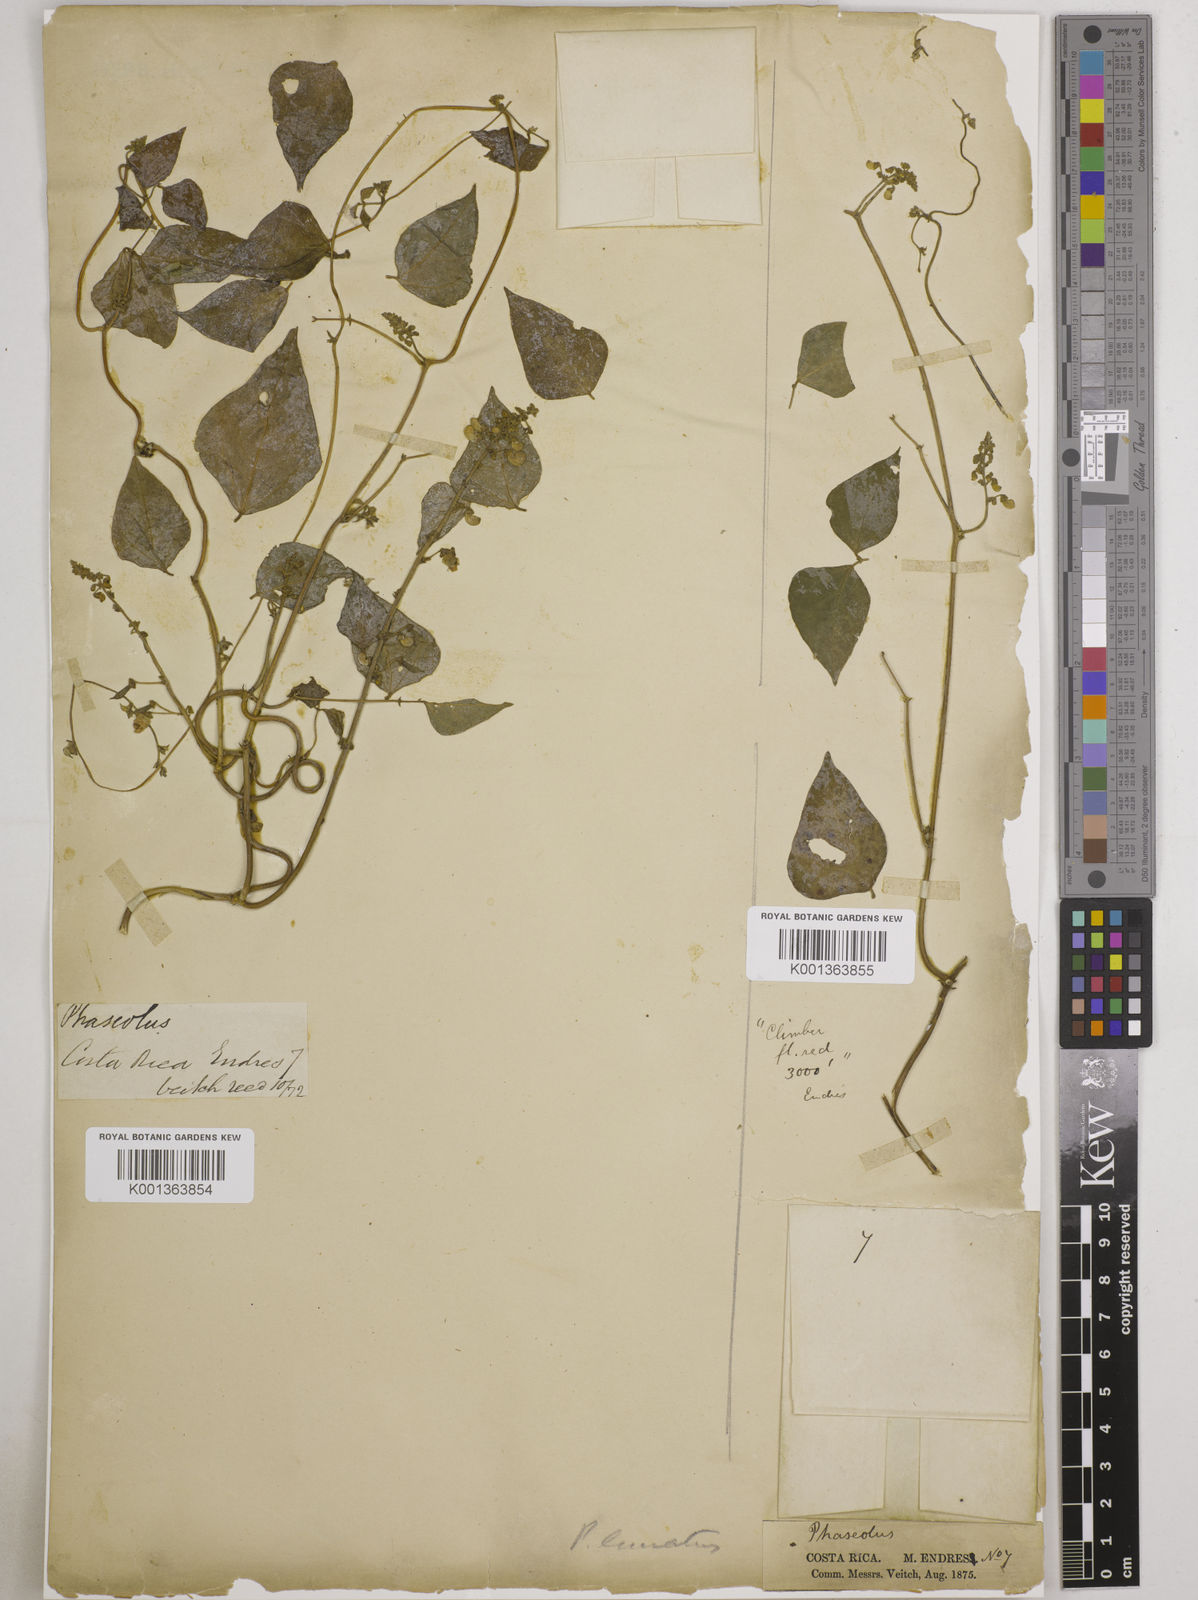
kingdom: Plantae
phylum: Tracheophyta
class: Magnoliopsida
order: Fabales
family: Fabaceae
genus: Phaseolus
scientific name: Phaseolus lunatus
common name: Sieva bean
